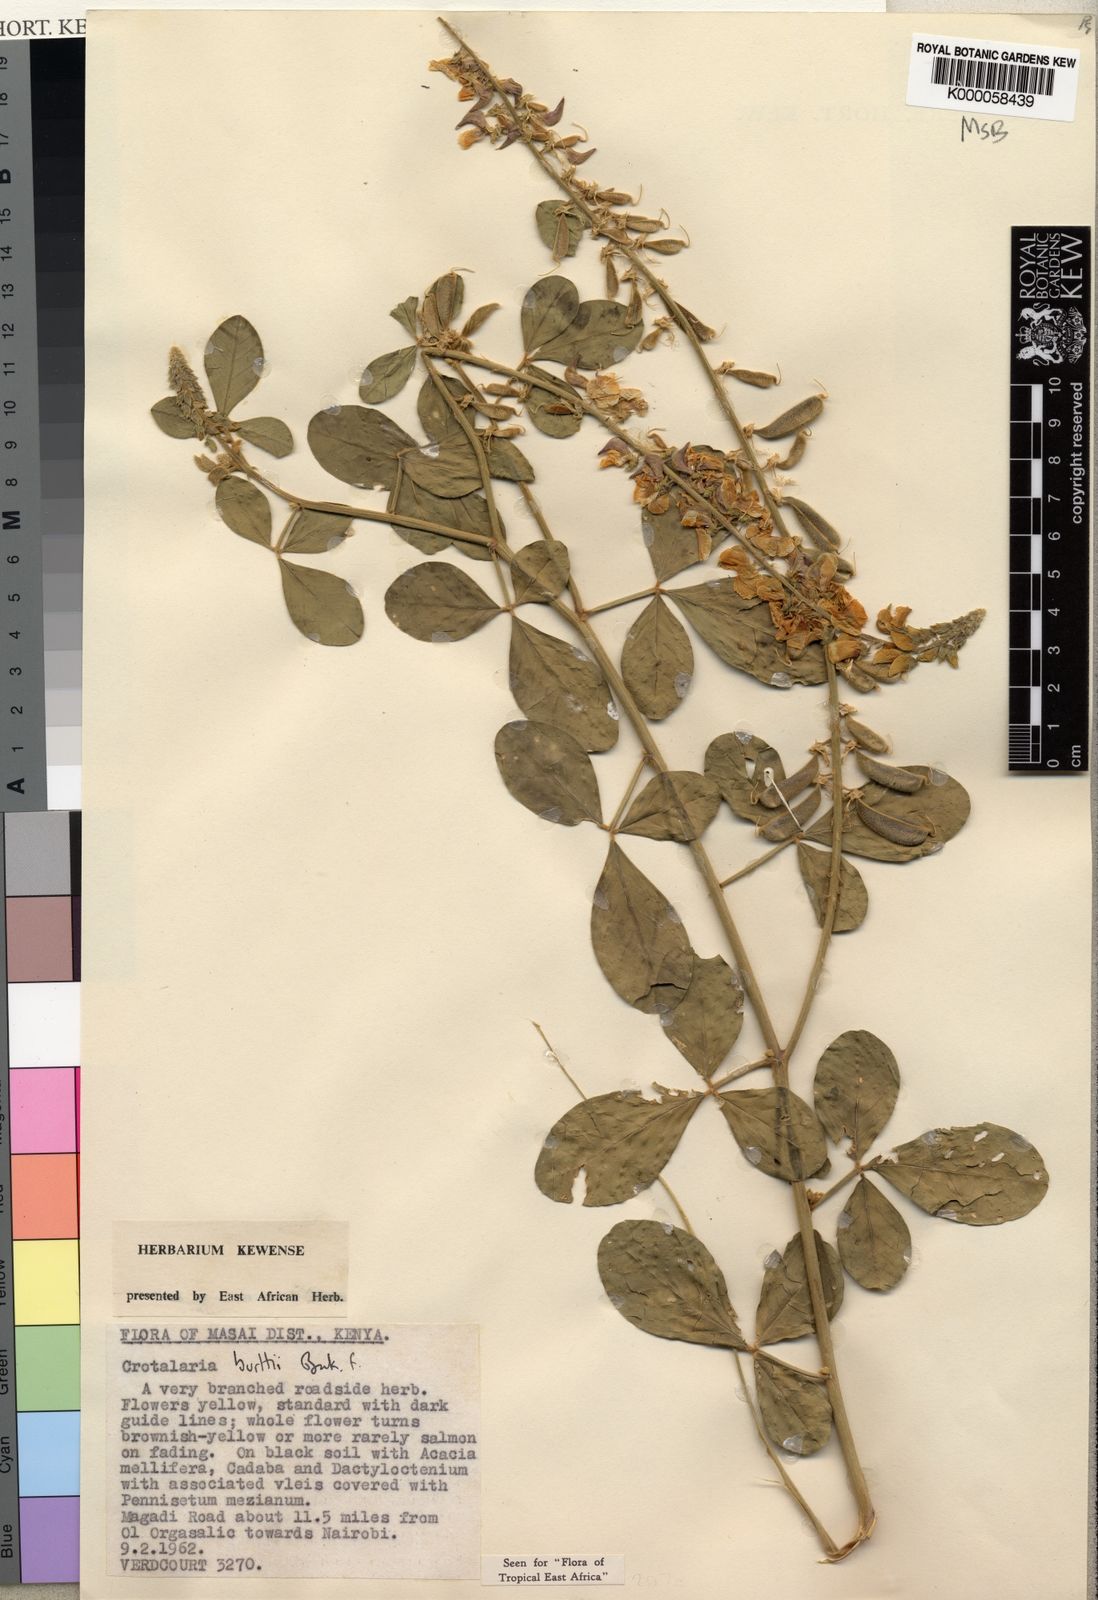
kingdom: Plantae
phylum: Tracheophyta
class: Magnoliopsida
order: Fabales
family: Fabaceae
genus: Crotalaria
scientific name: Crotalaria burttii
